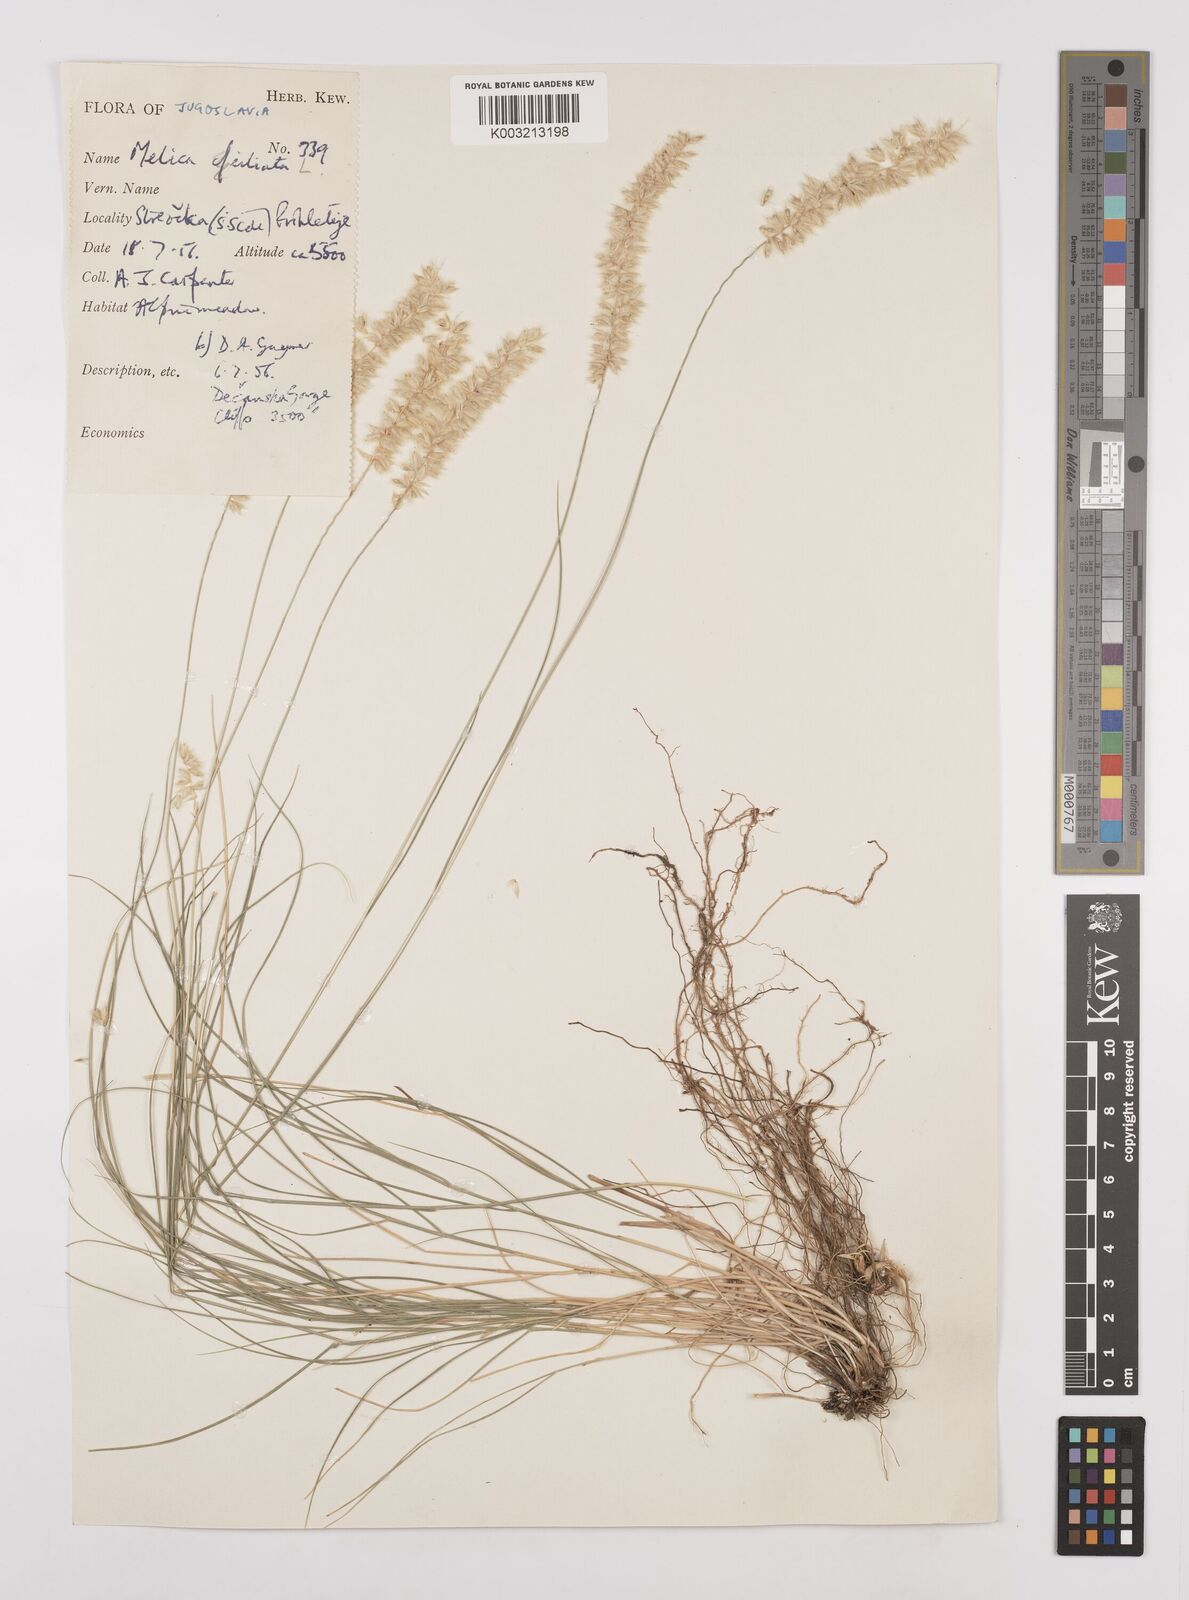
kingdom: Plantae
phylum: Tracheophyta
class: Liliopsida
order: Poales
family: Poaceae
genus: Melica
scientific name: Melica ciliata
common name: Hairy melicgrass
